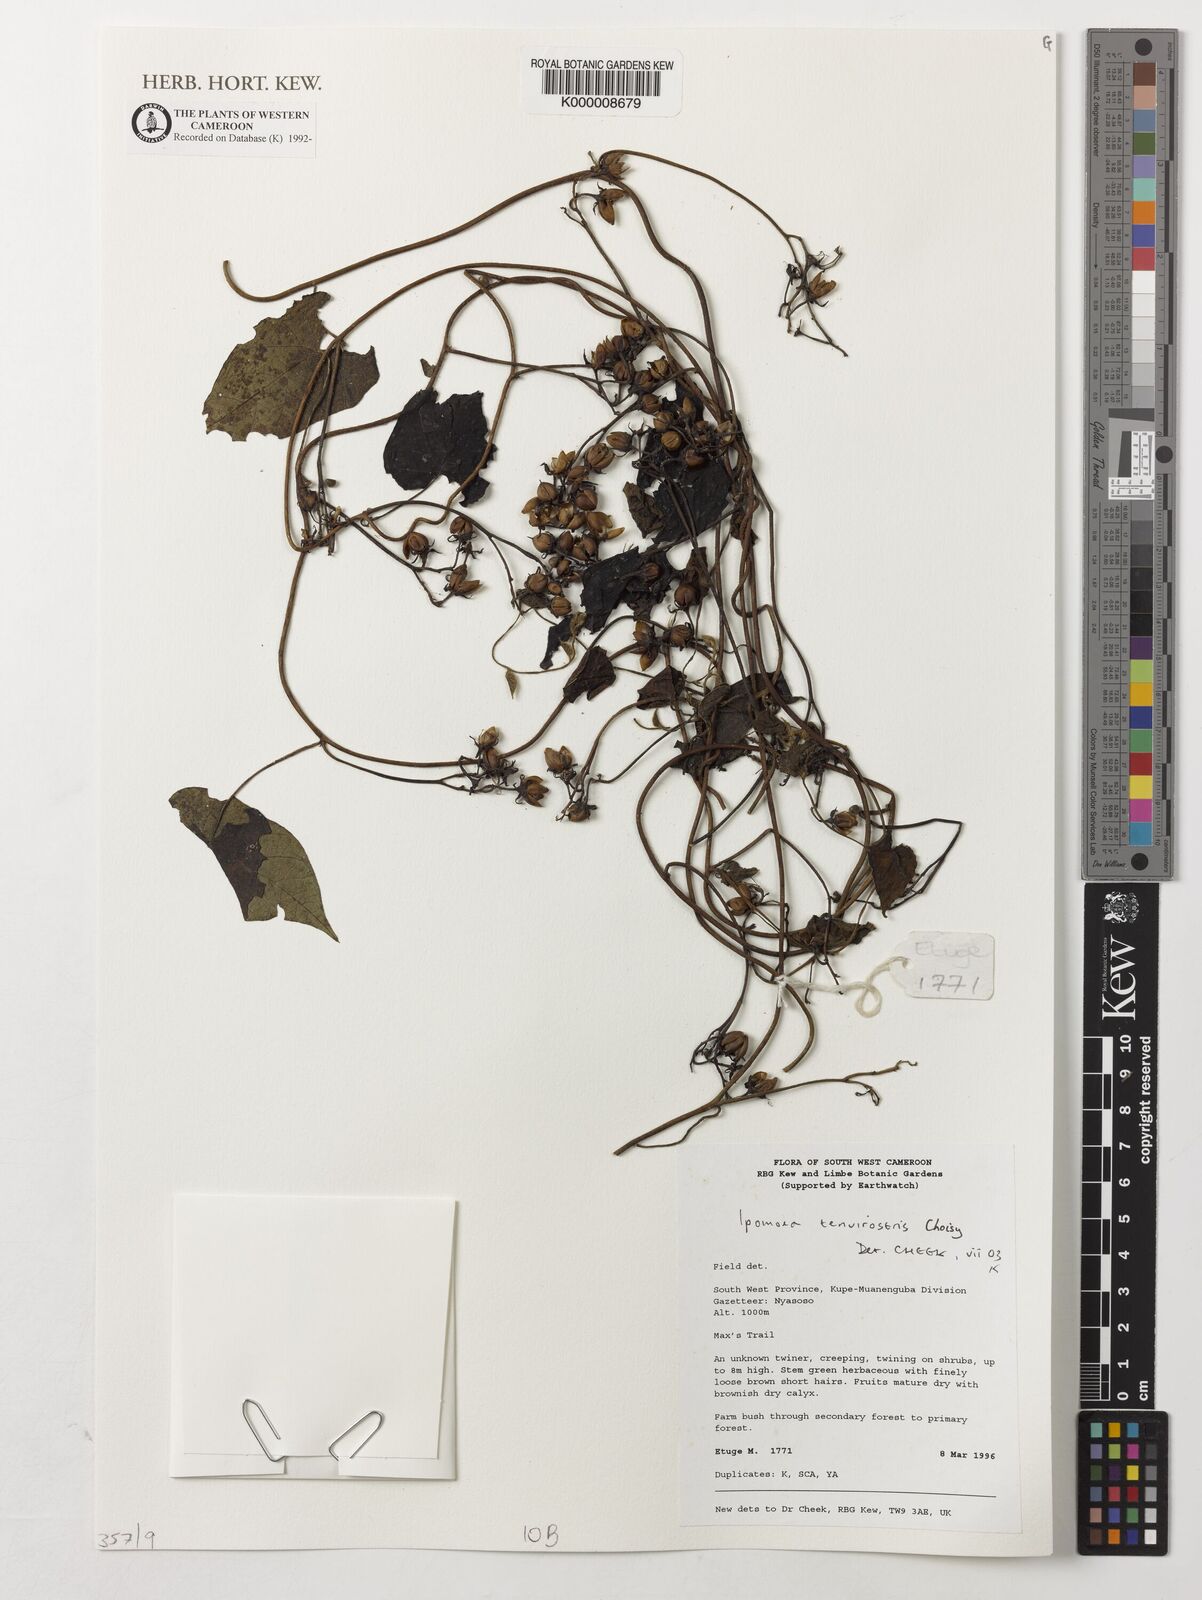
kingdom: Plantae
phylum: Tracheophyta
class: Magnoliopsida
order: Solanales
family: Convolvulaceae
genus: Ipomoea
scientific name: Ipomoea tenuirostris
